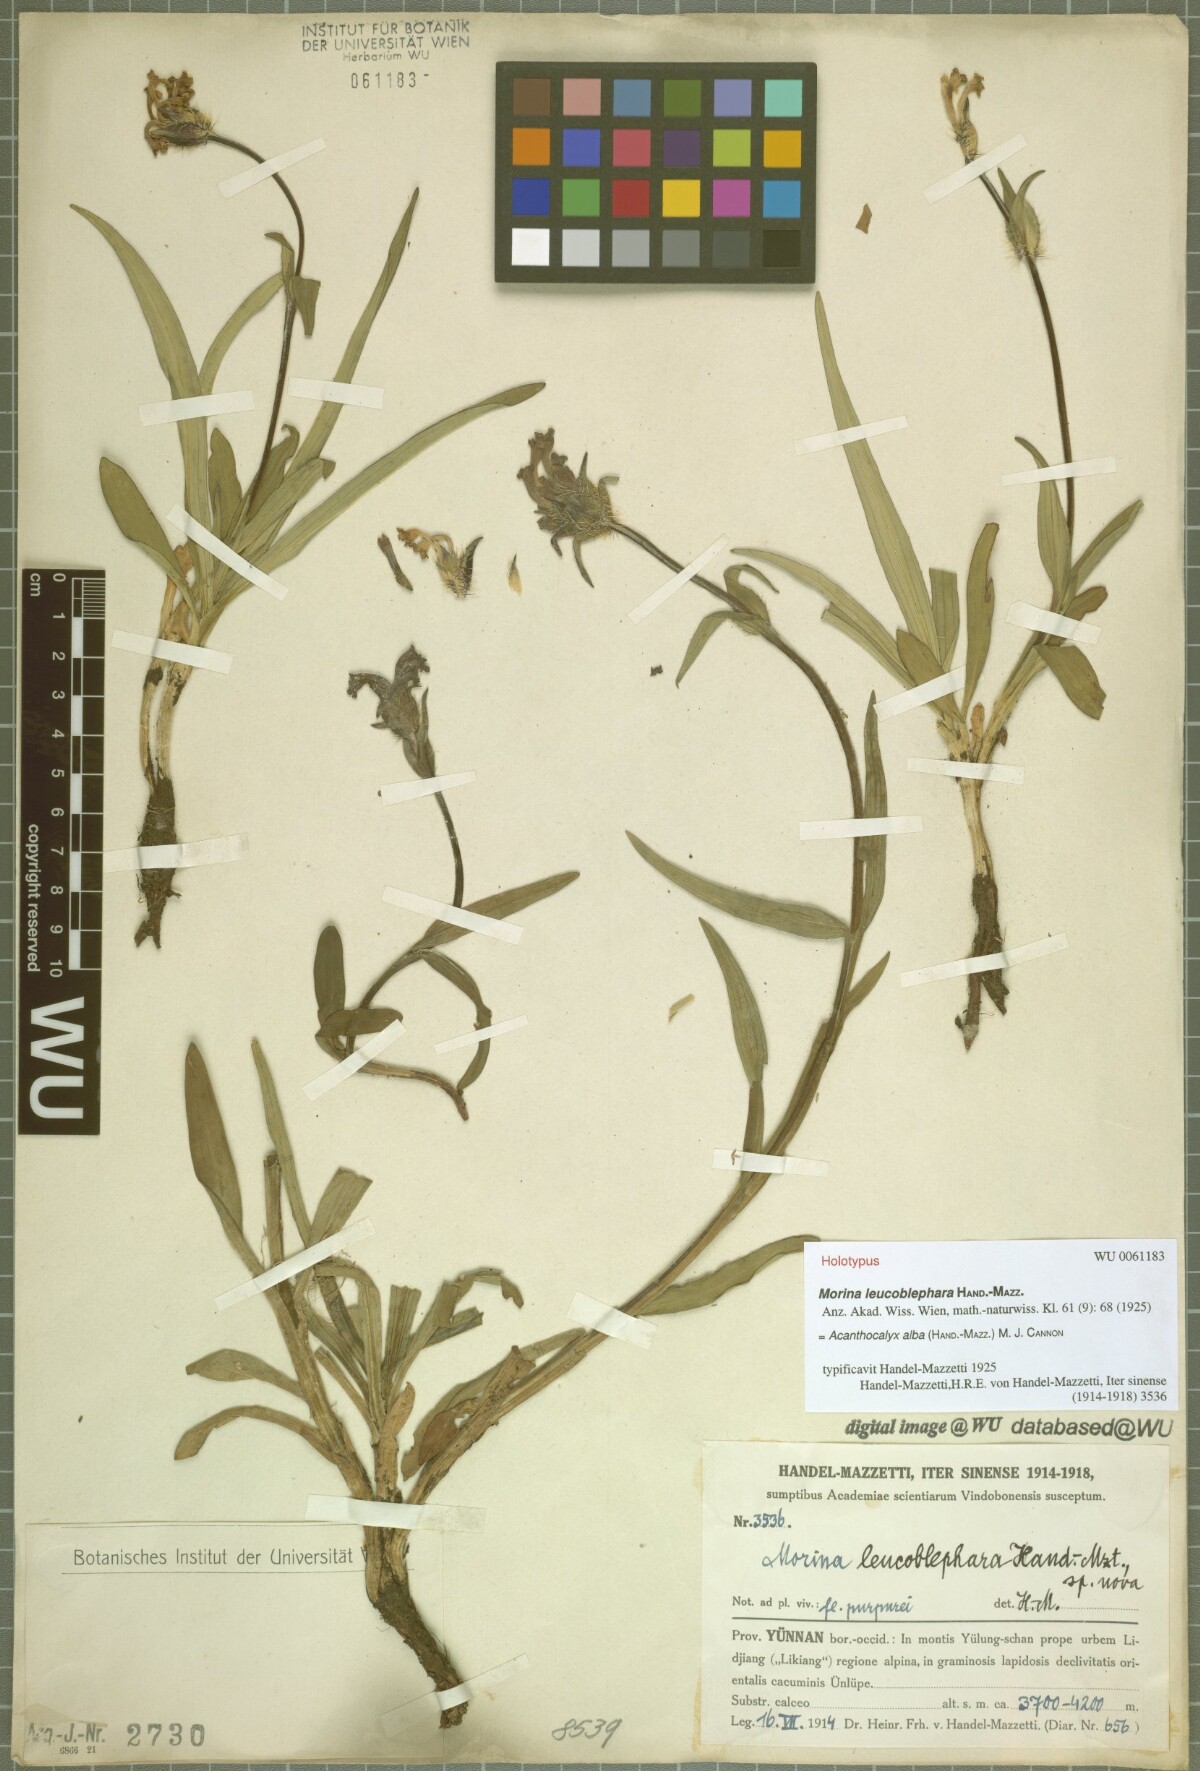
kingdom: Plantae
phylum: Tracheophyta
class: Magnoliopsida
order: Dipsacales
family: Caprifoliaceae
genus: Acanthocalyx
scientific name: Acanthocalyx alba
